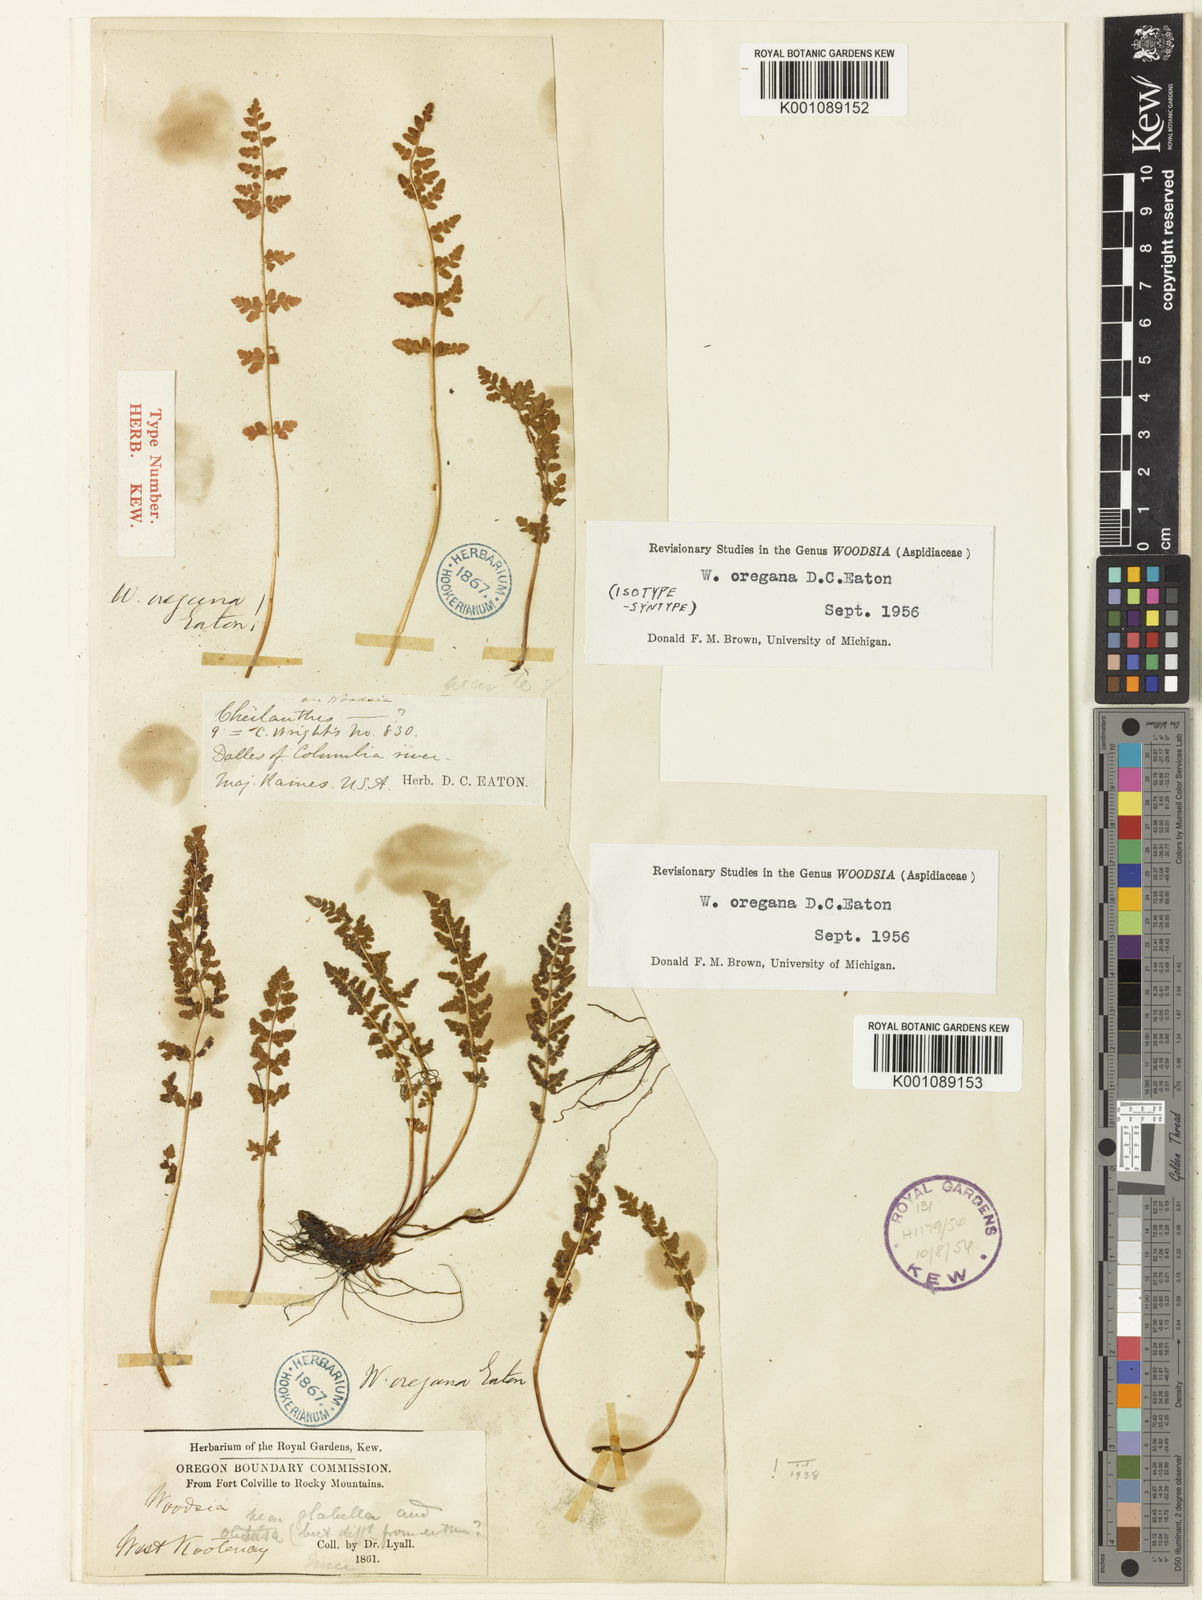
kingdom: Plantae
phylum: Tracheophyta
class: Polypodiopsida
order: Polypodiales
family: Woodsiaceae
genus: Physematium
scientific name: Physematium oreganum
